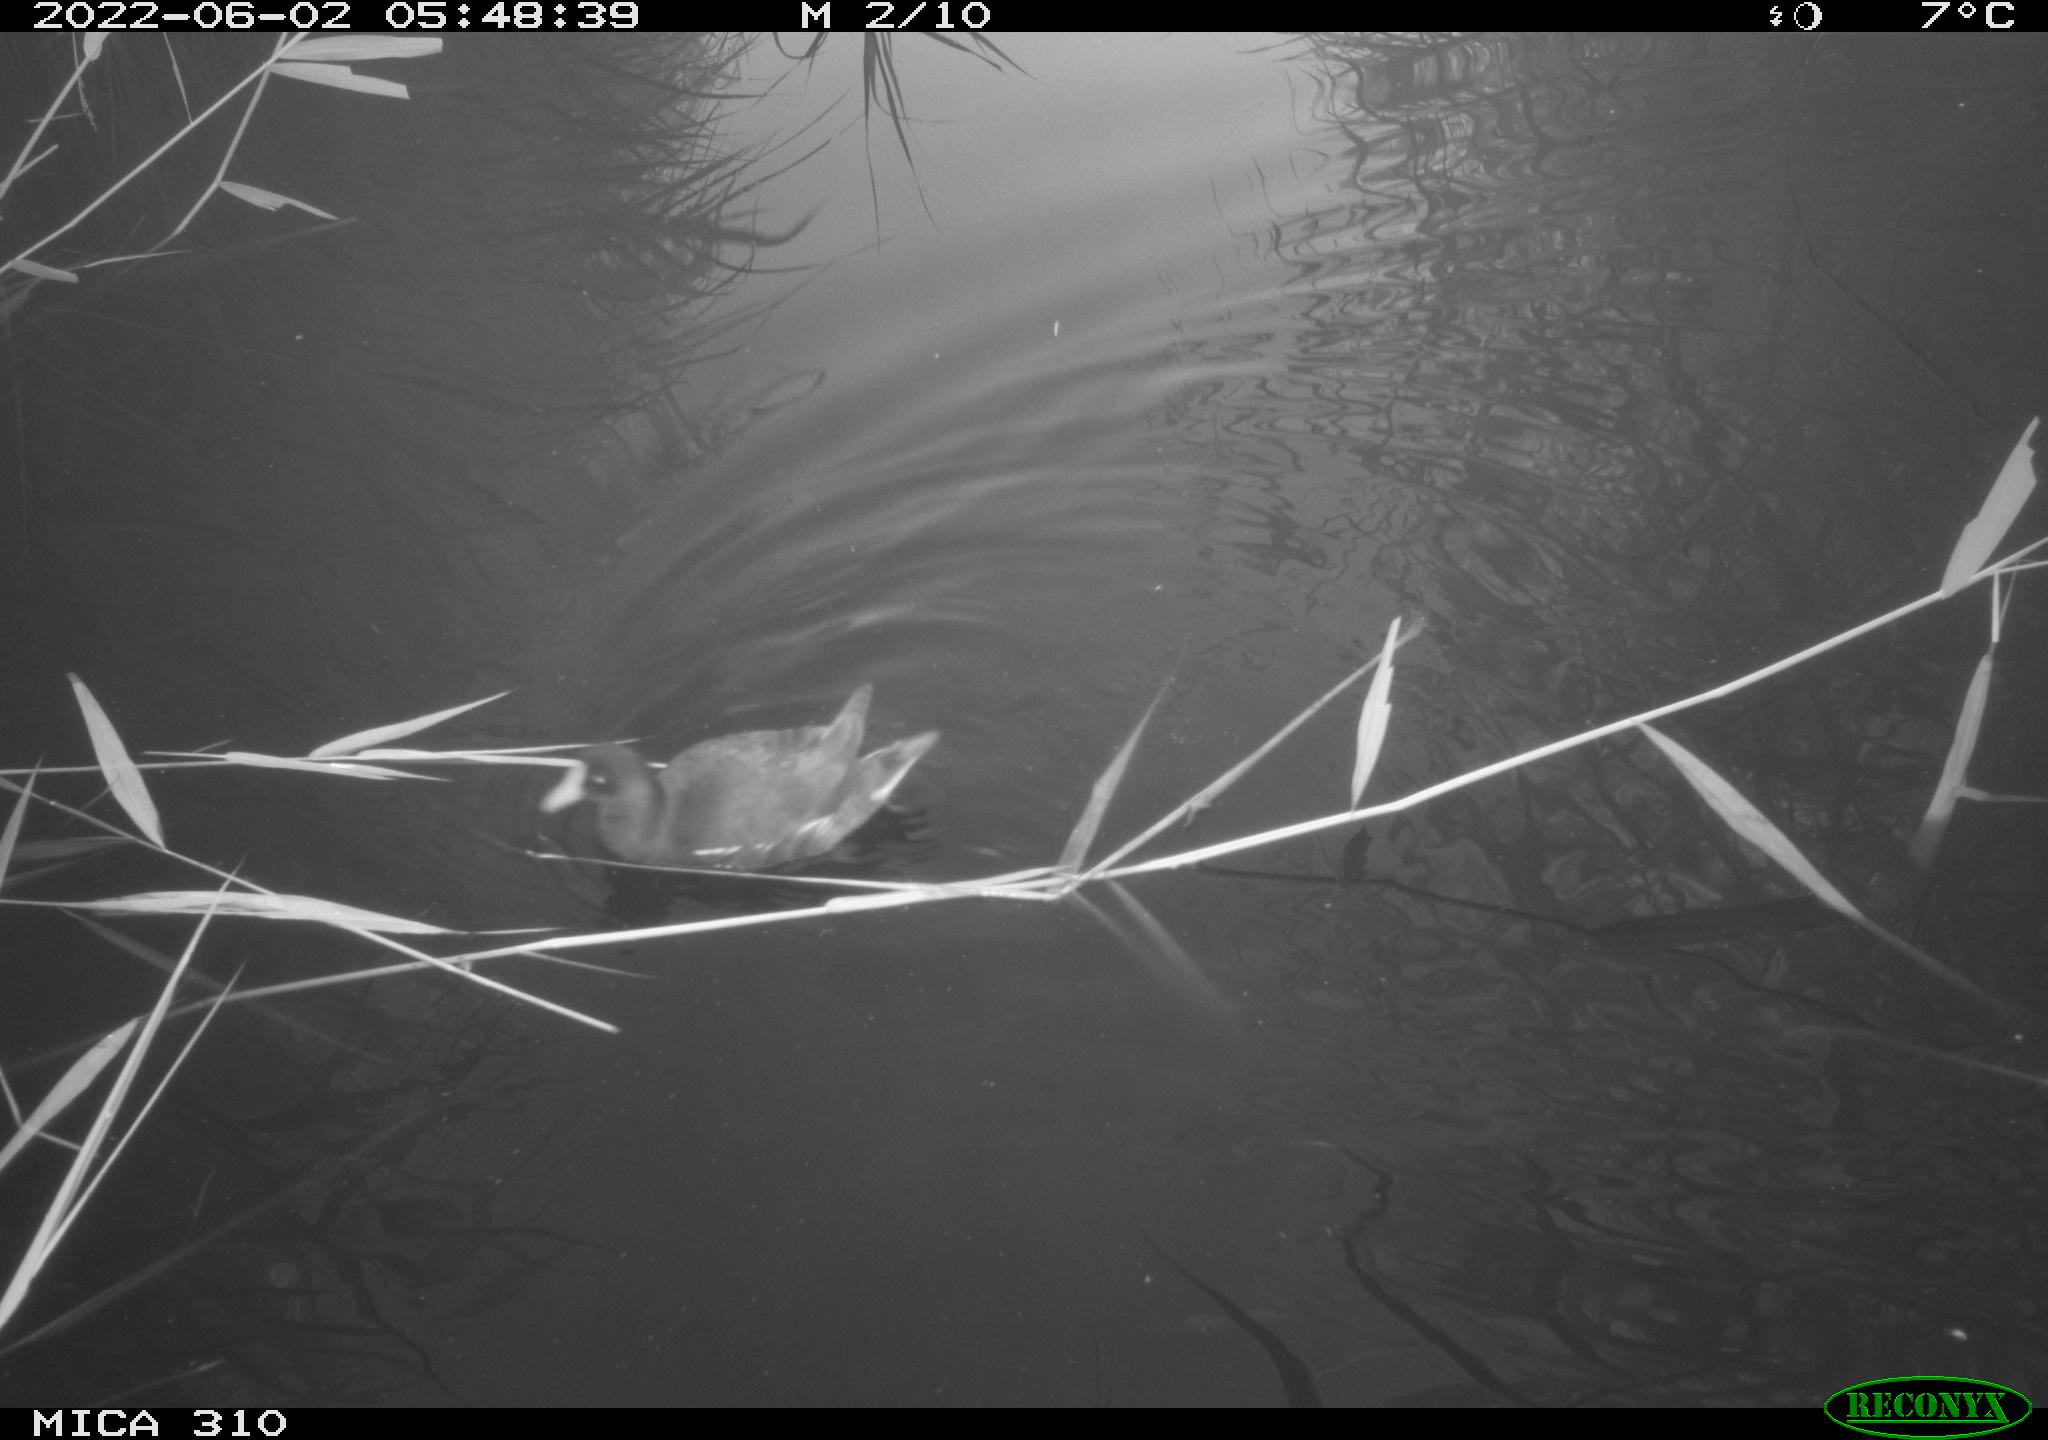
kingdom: Animalia
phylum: Chordata
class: Aves
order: Gruiformes
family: Rallidae
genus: Gallinula
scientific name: Gallinula chloropus
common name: Common moorhen
